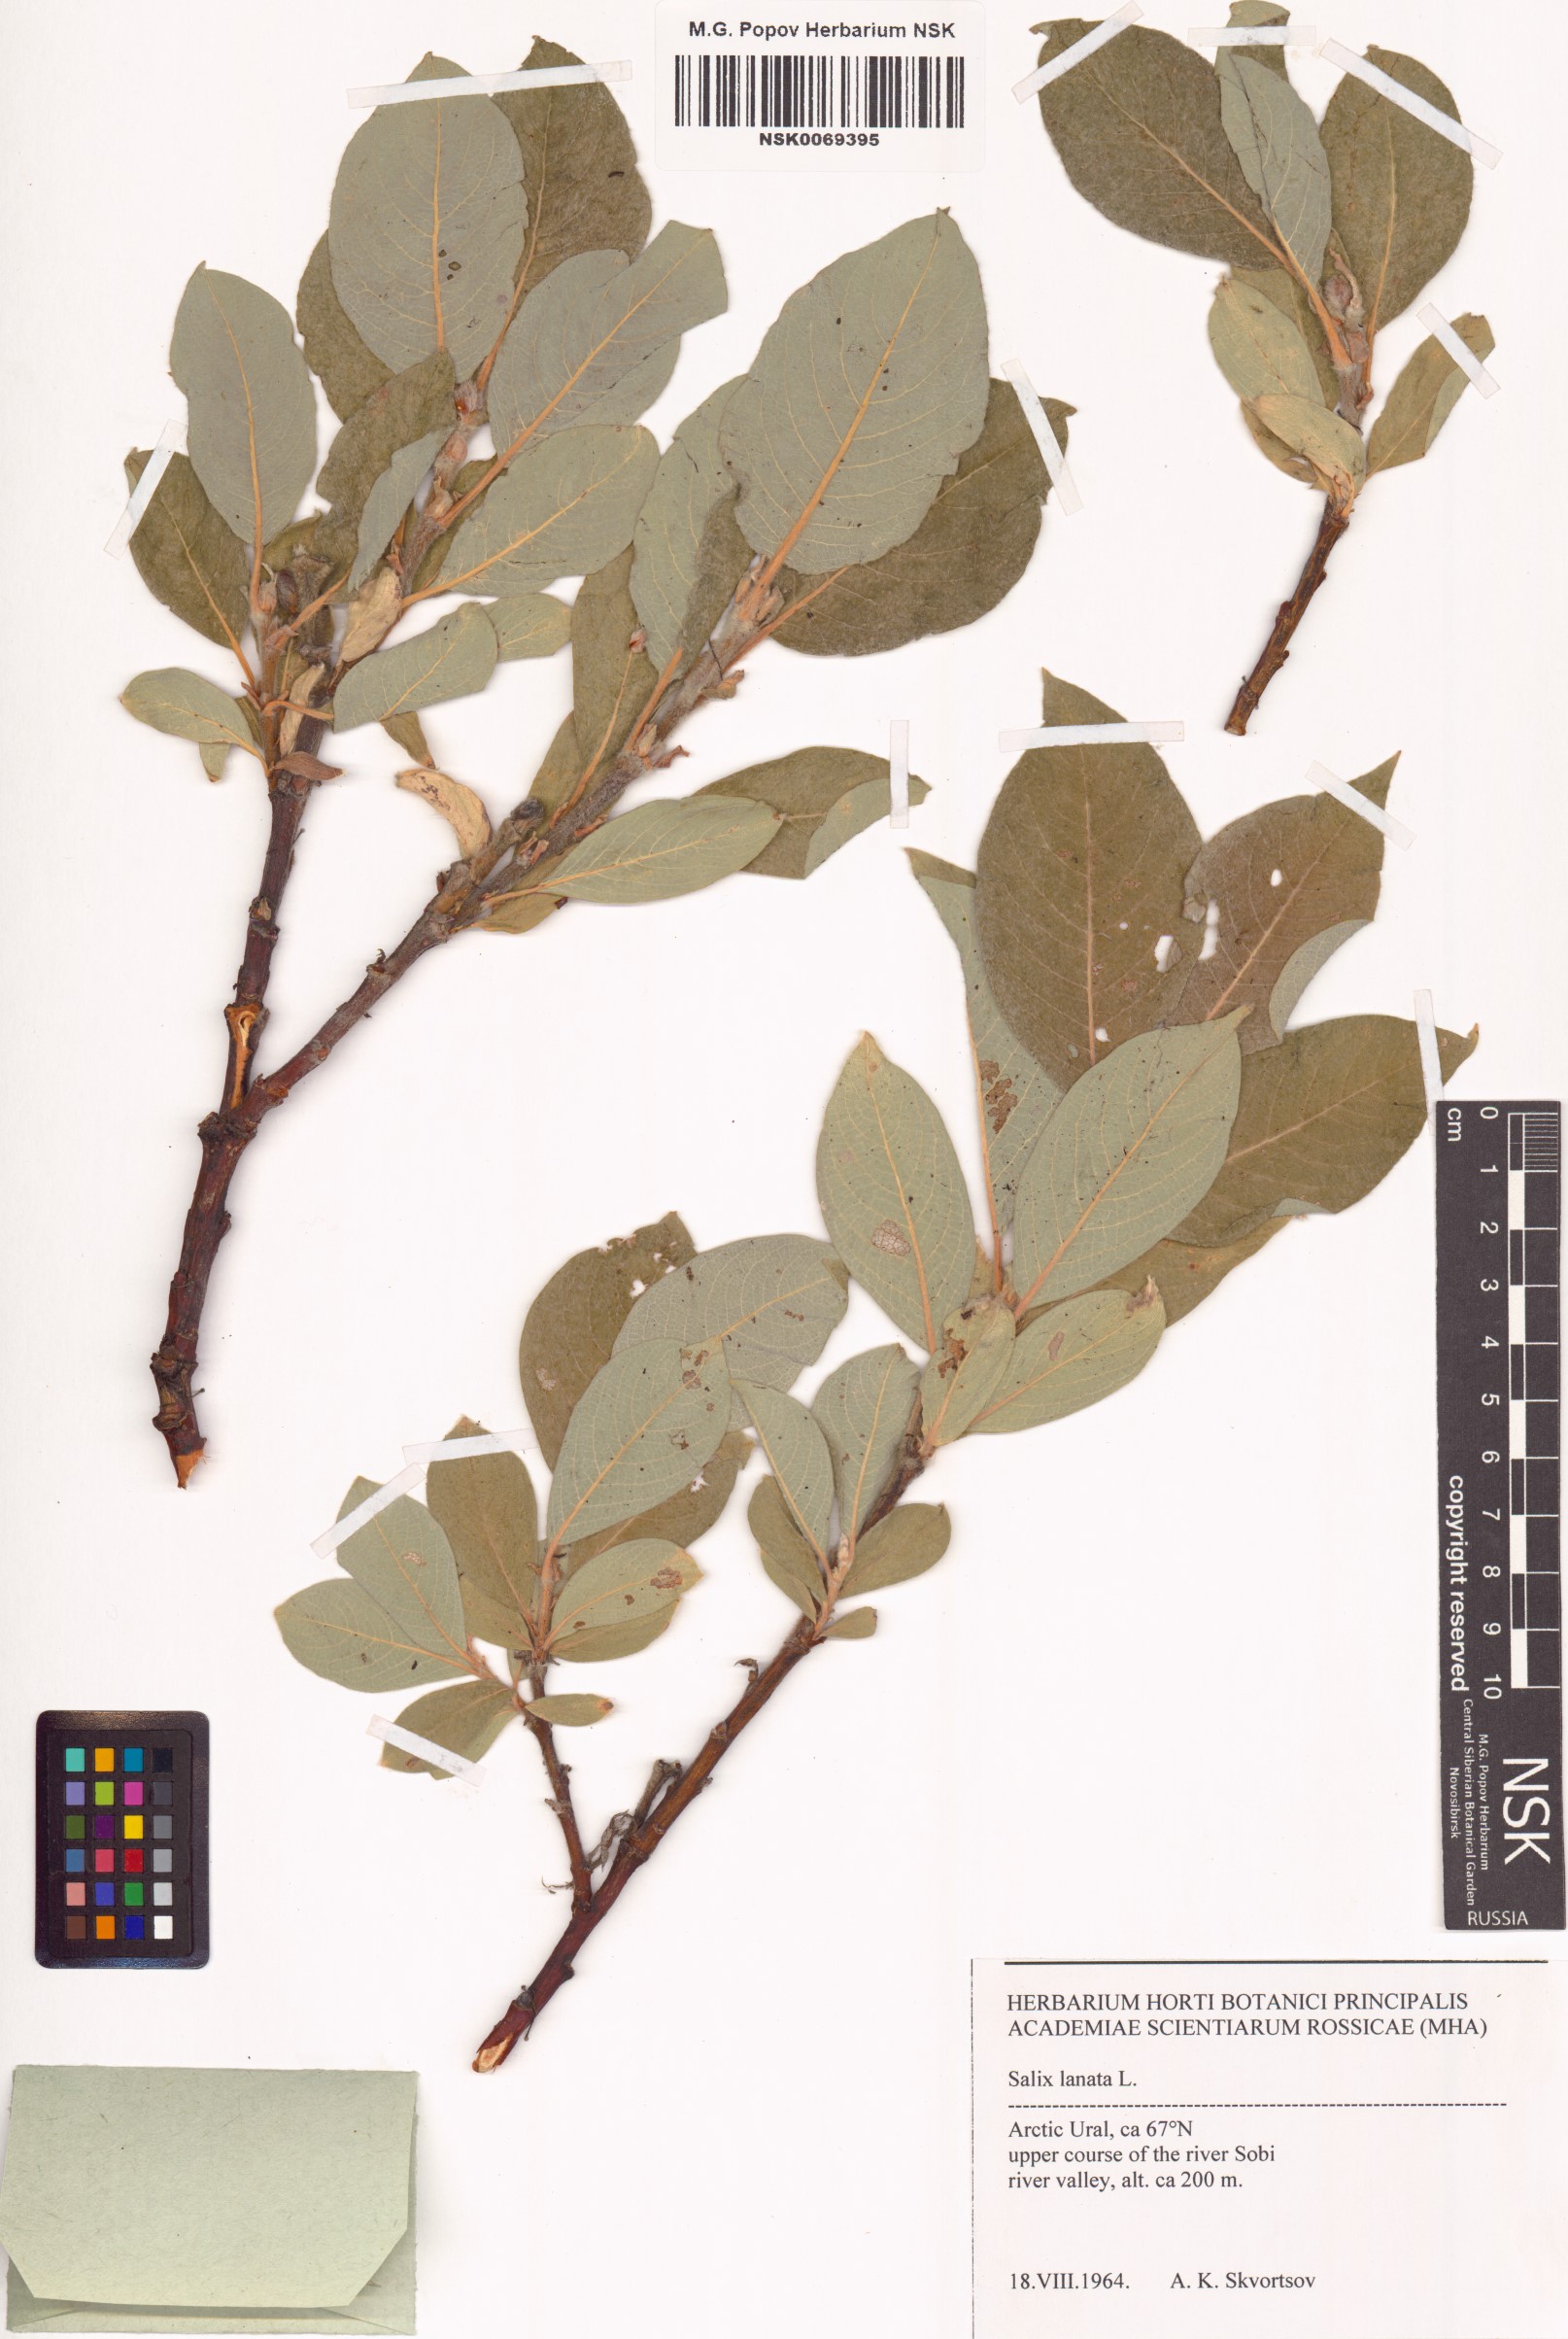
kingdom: Plantae
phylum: Tracheophyta
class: Magnoliopsida
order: Malpighiales
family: Salicaceae
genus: Salix
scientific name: Salix lanata
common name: Woolly willow
